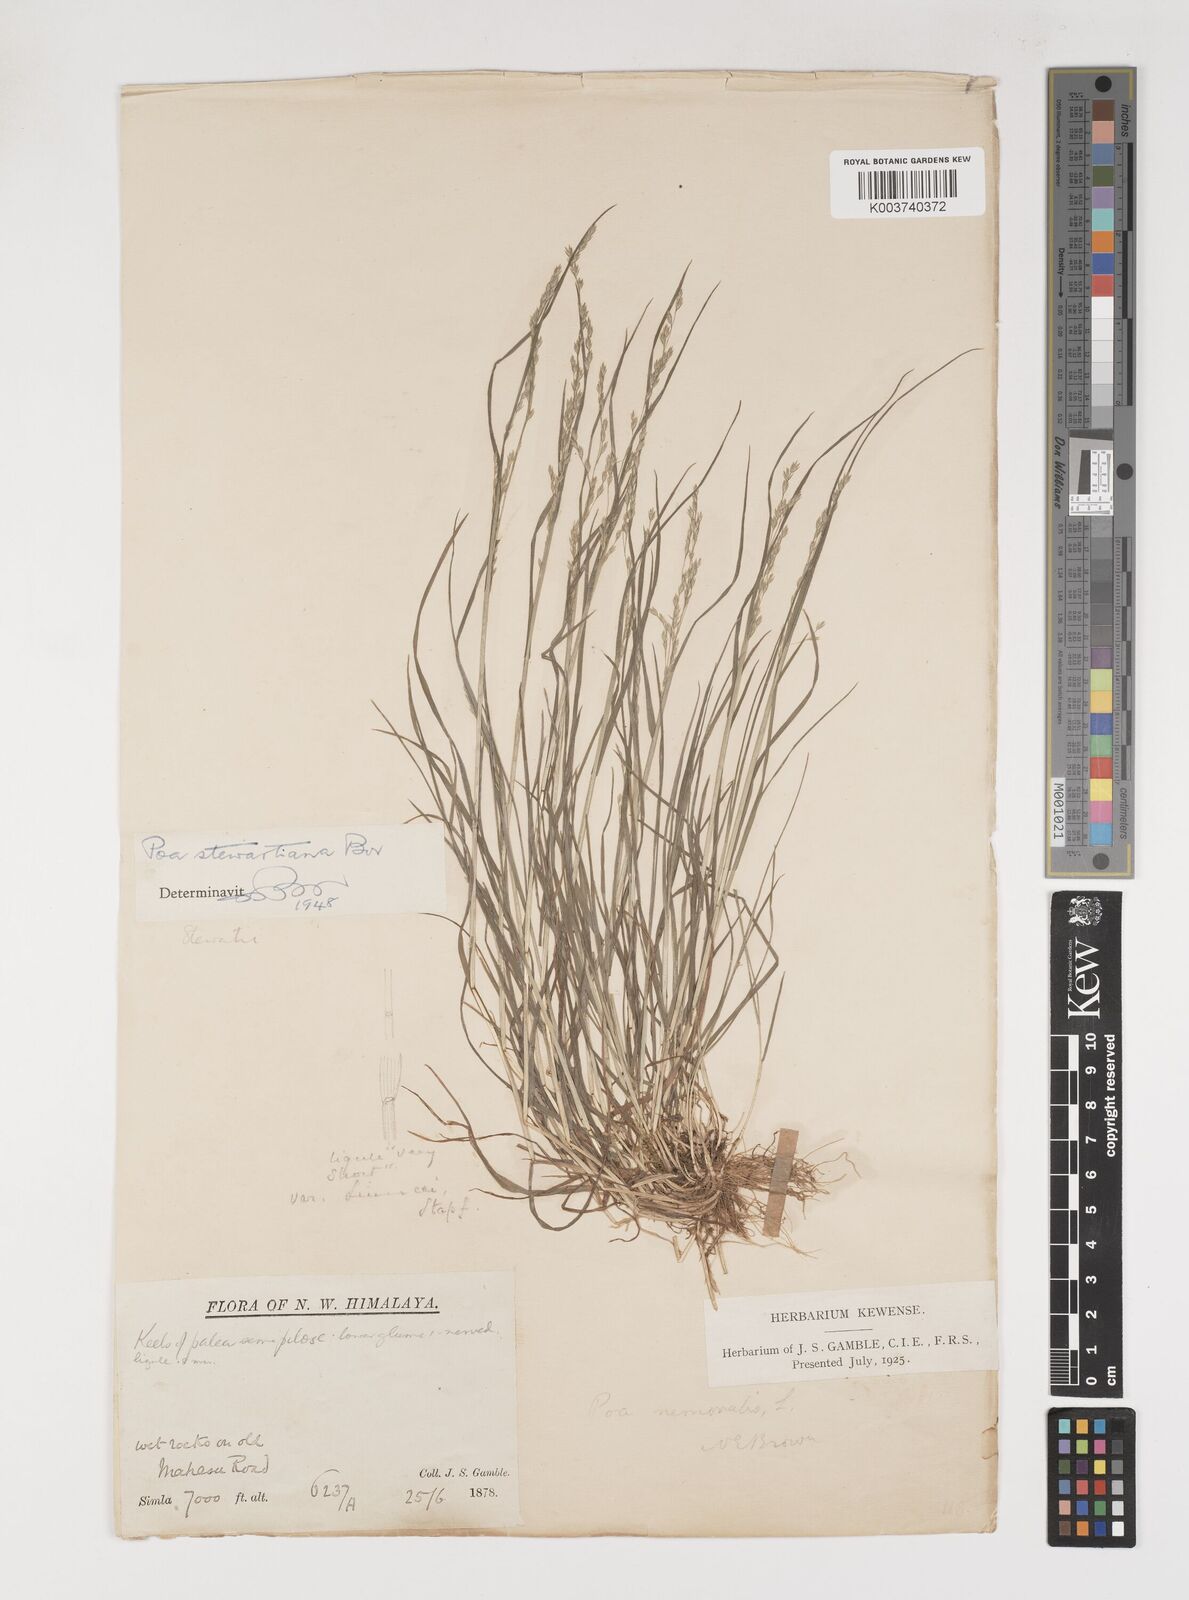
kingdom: Plantae
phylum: Tracheophyta
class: Liliopsida
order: Poales
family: Poaceae
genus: Poa
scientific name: Poa stewartiana
